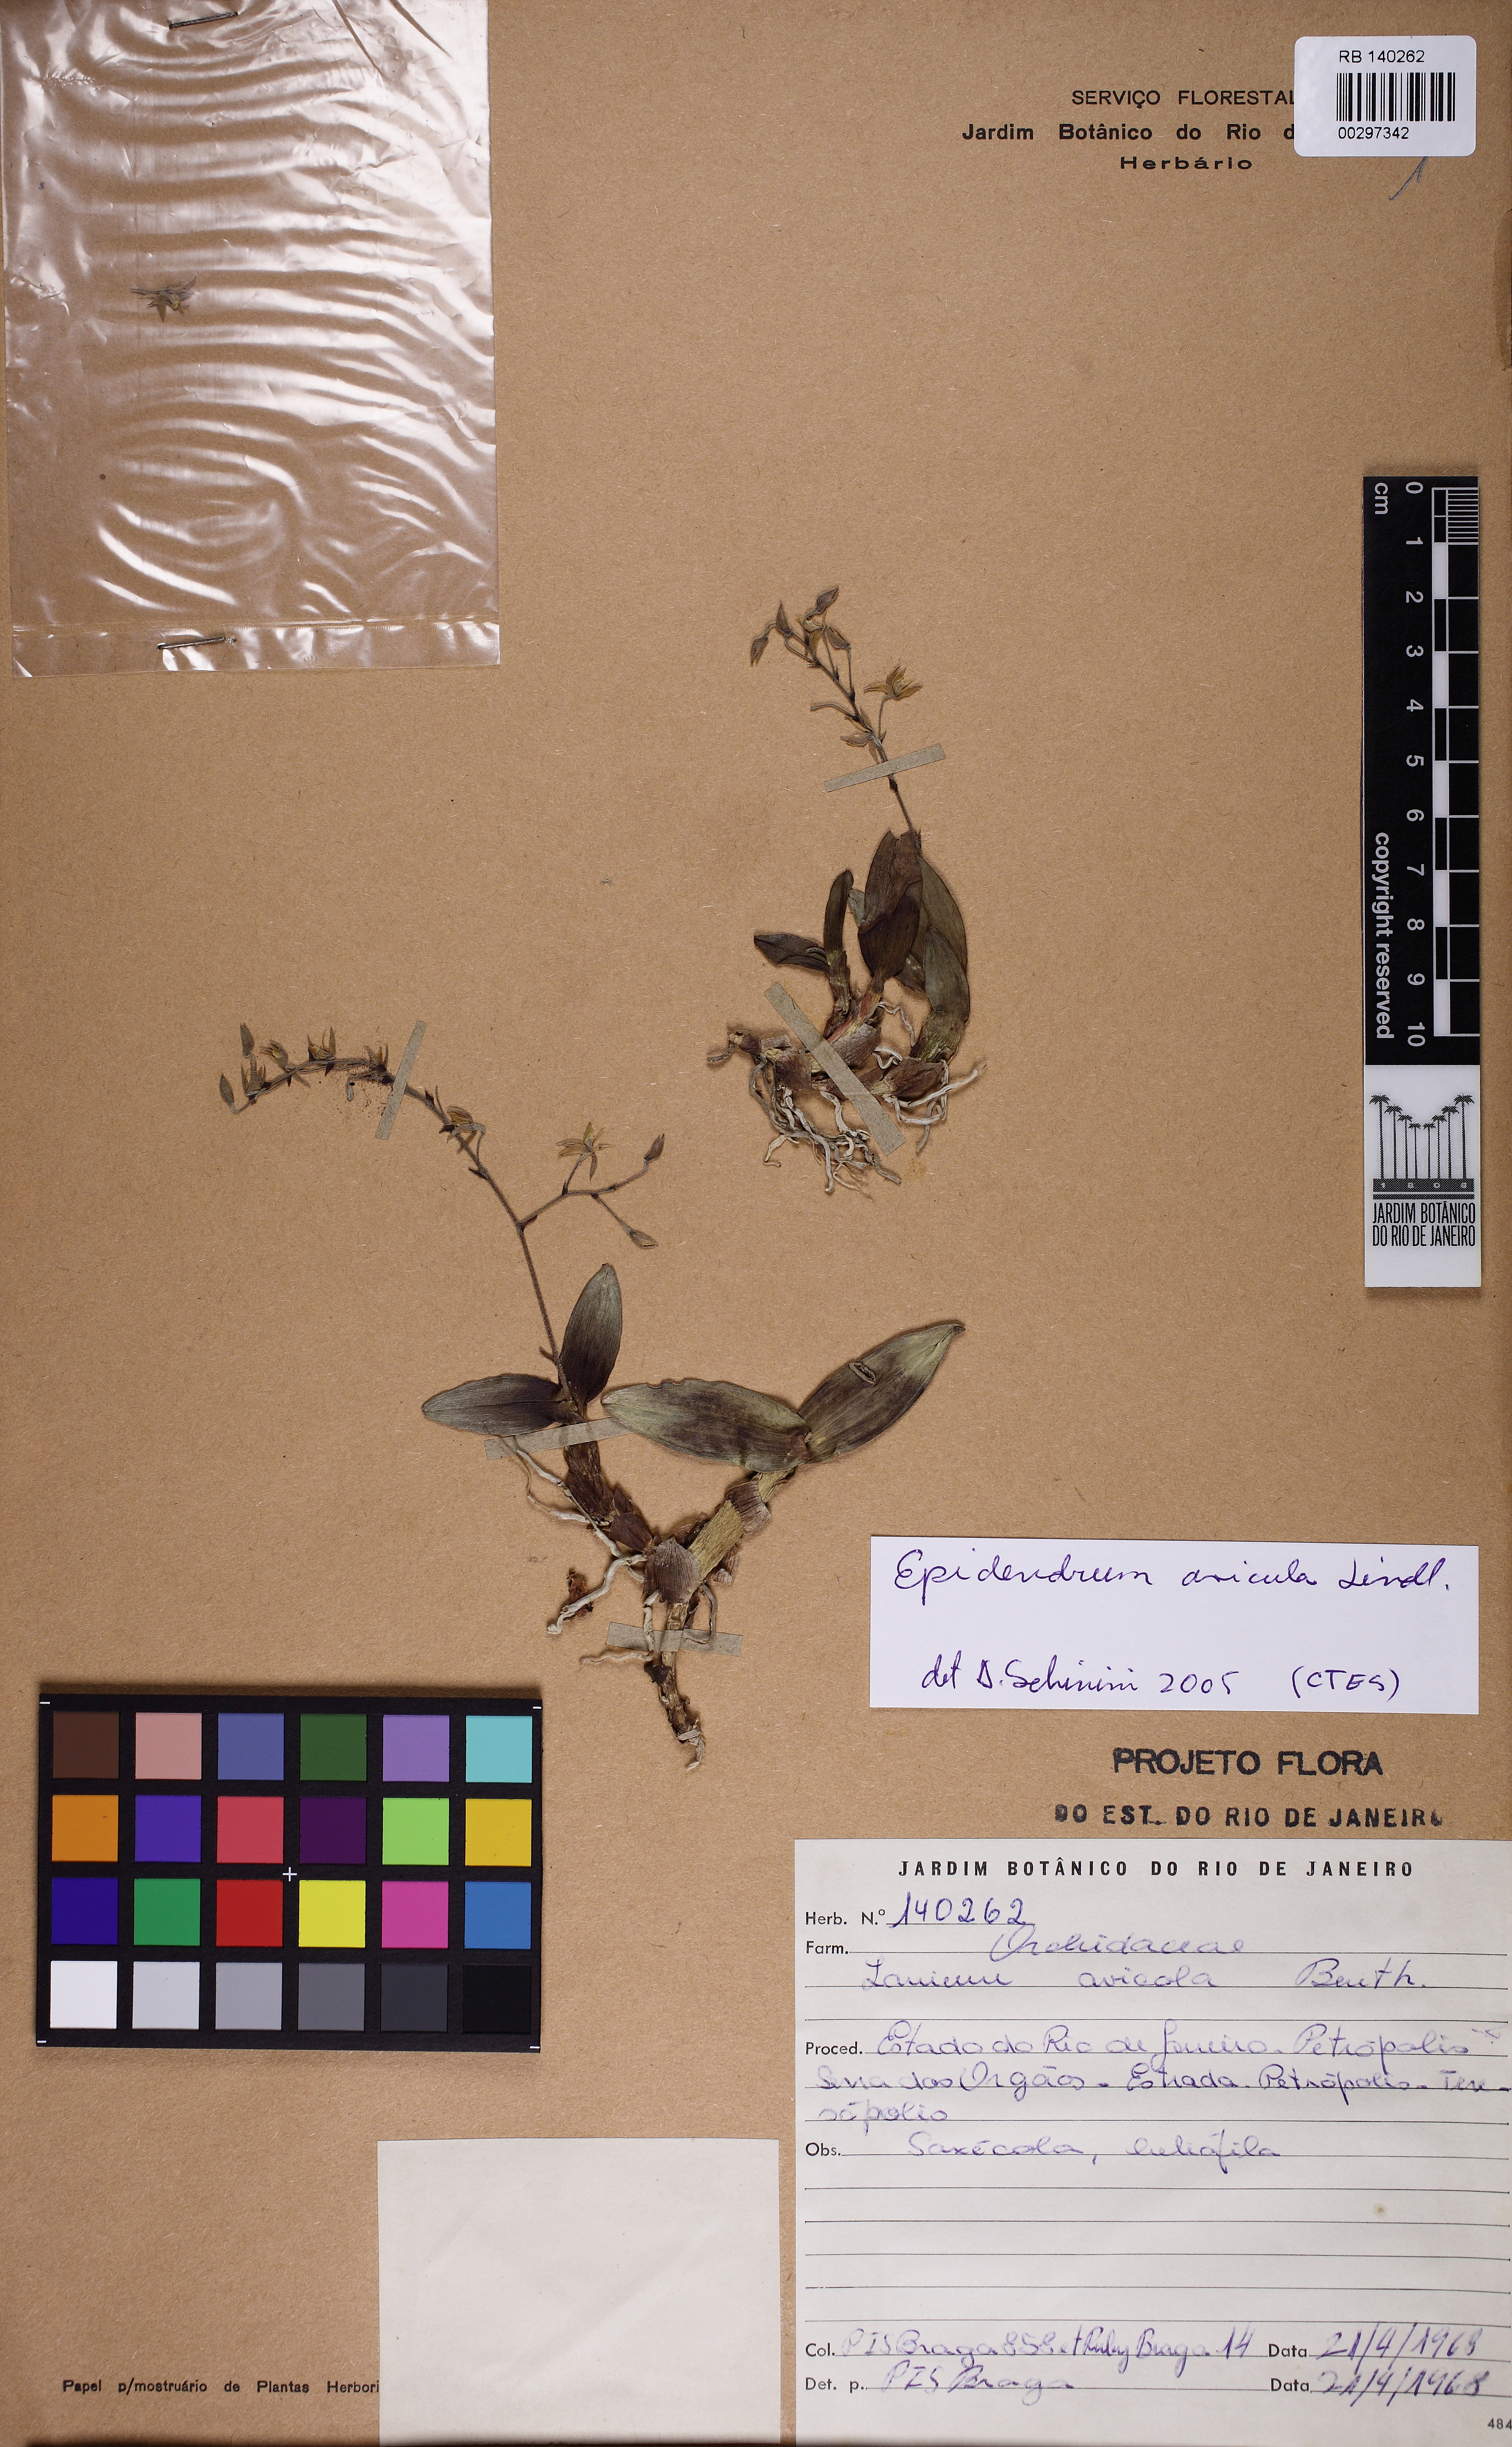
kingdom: Plantae
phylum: Tracheophyta
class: Liliopsida
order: Asparagales
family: Orchidaceae
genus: Epidendrum
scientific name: Epidendrum avicula
